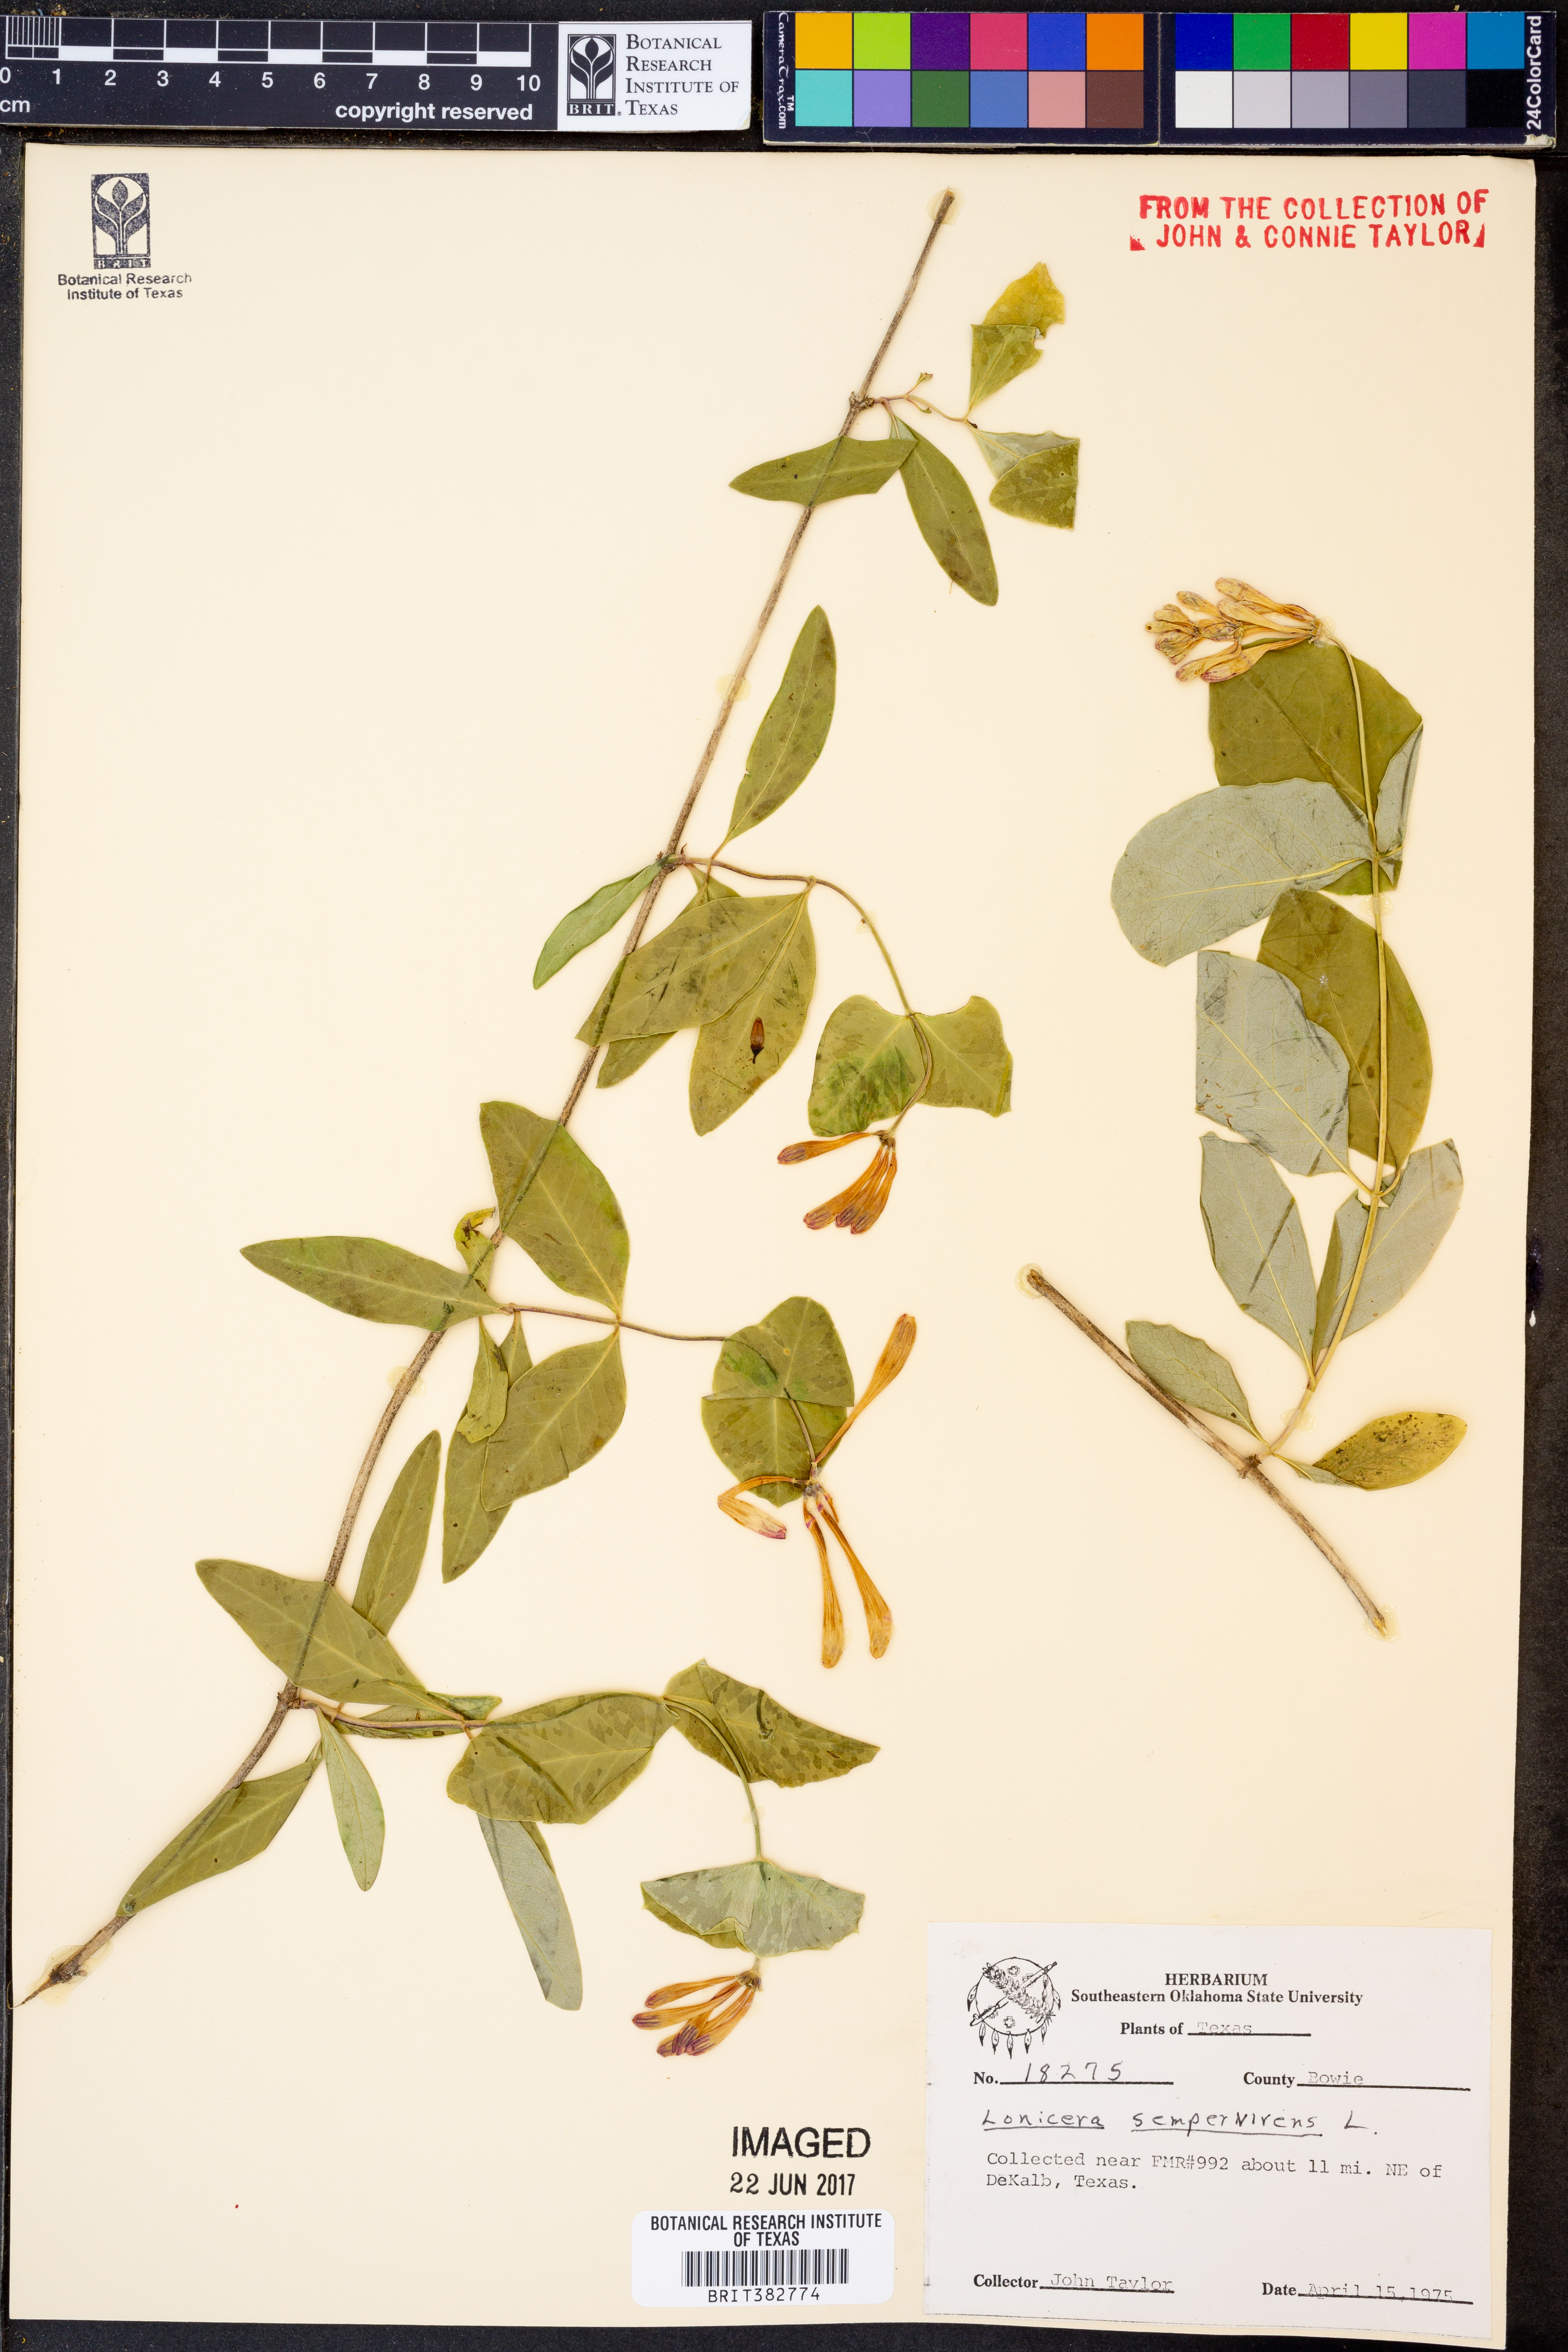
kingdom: Plantae
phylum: Tracheophyta
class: Magnoliopsida
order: Dipsacales
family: Caprifoliaceae
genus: Lonicera
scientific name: Lonicera sempervirens
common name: Coral honeysuckle
